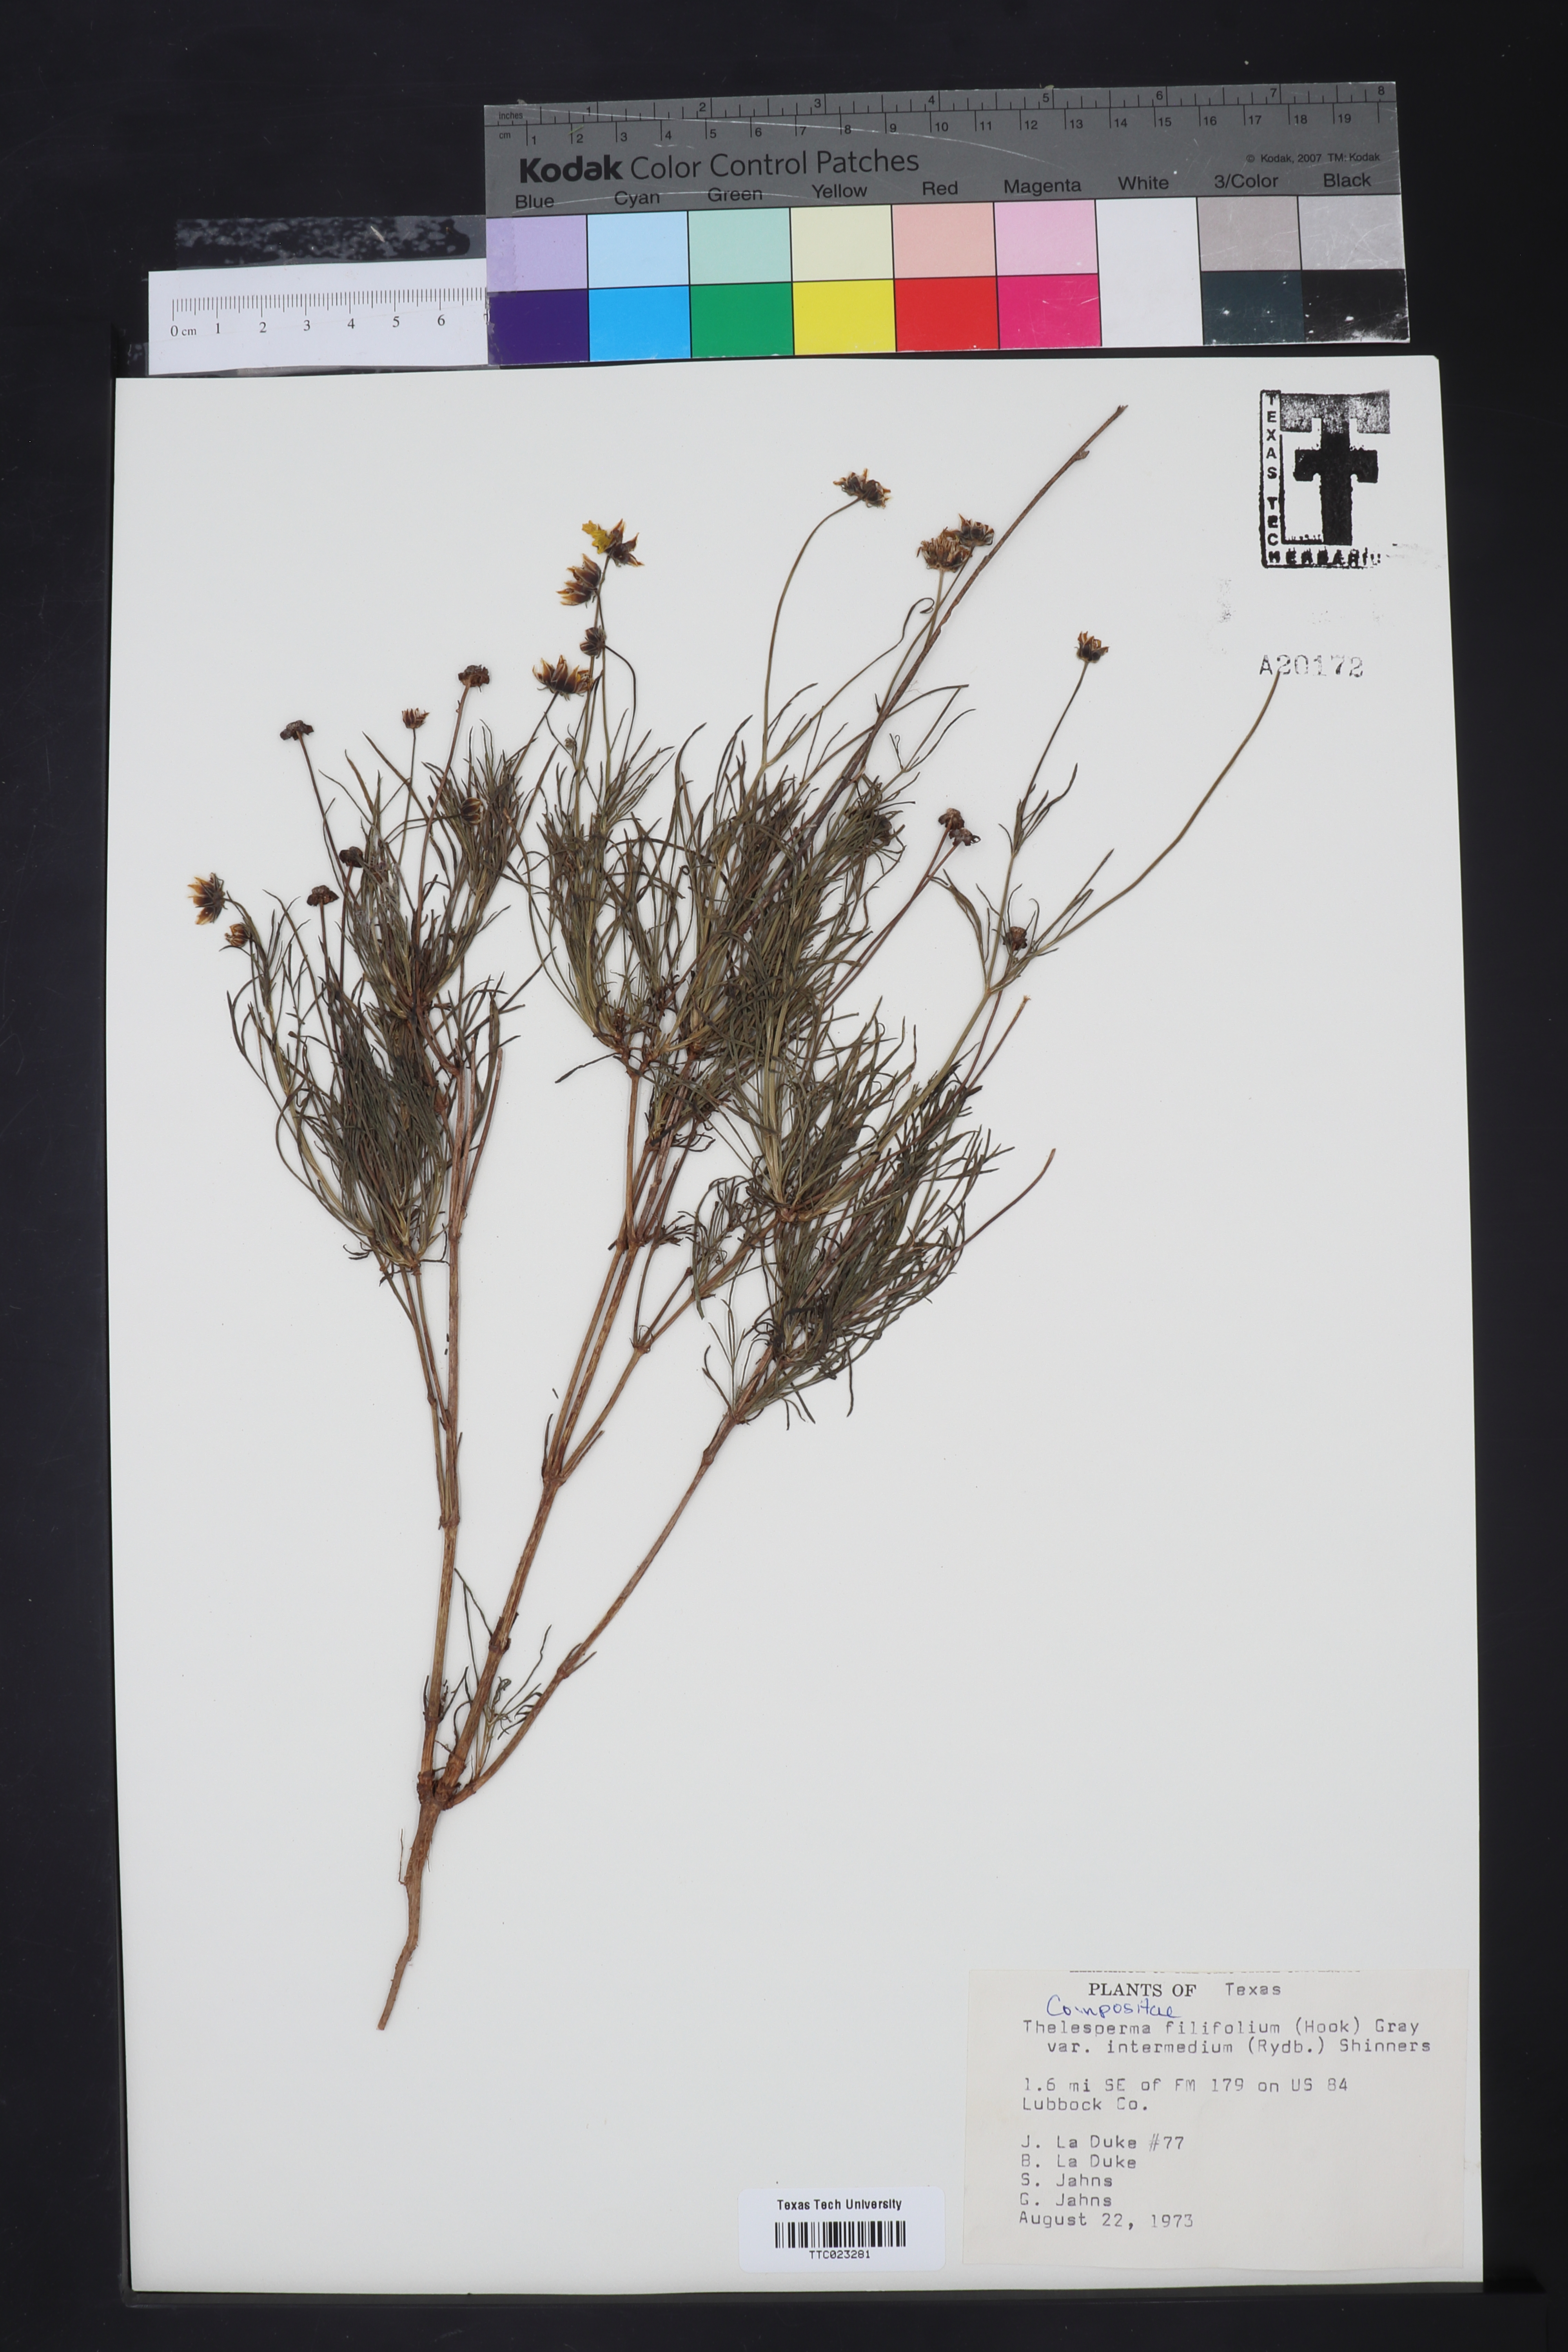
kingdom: Plantae
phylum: Tracheophyta
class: Magnoliopsida
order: Asterales
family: Asteraceae
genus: Thelesperma
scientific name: Thelesperma filifolium
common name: Stiff greenthread
